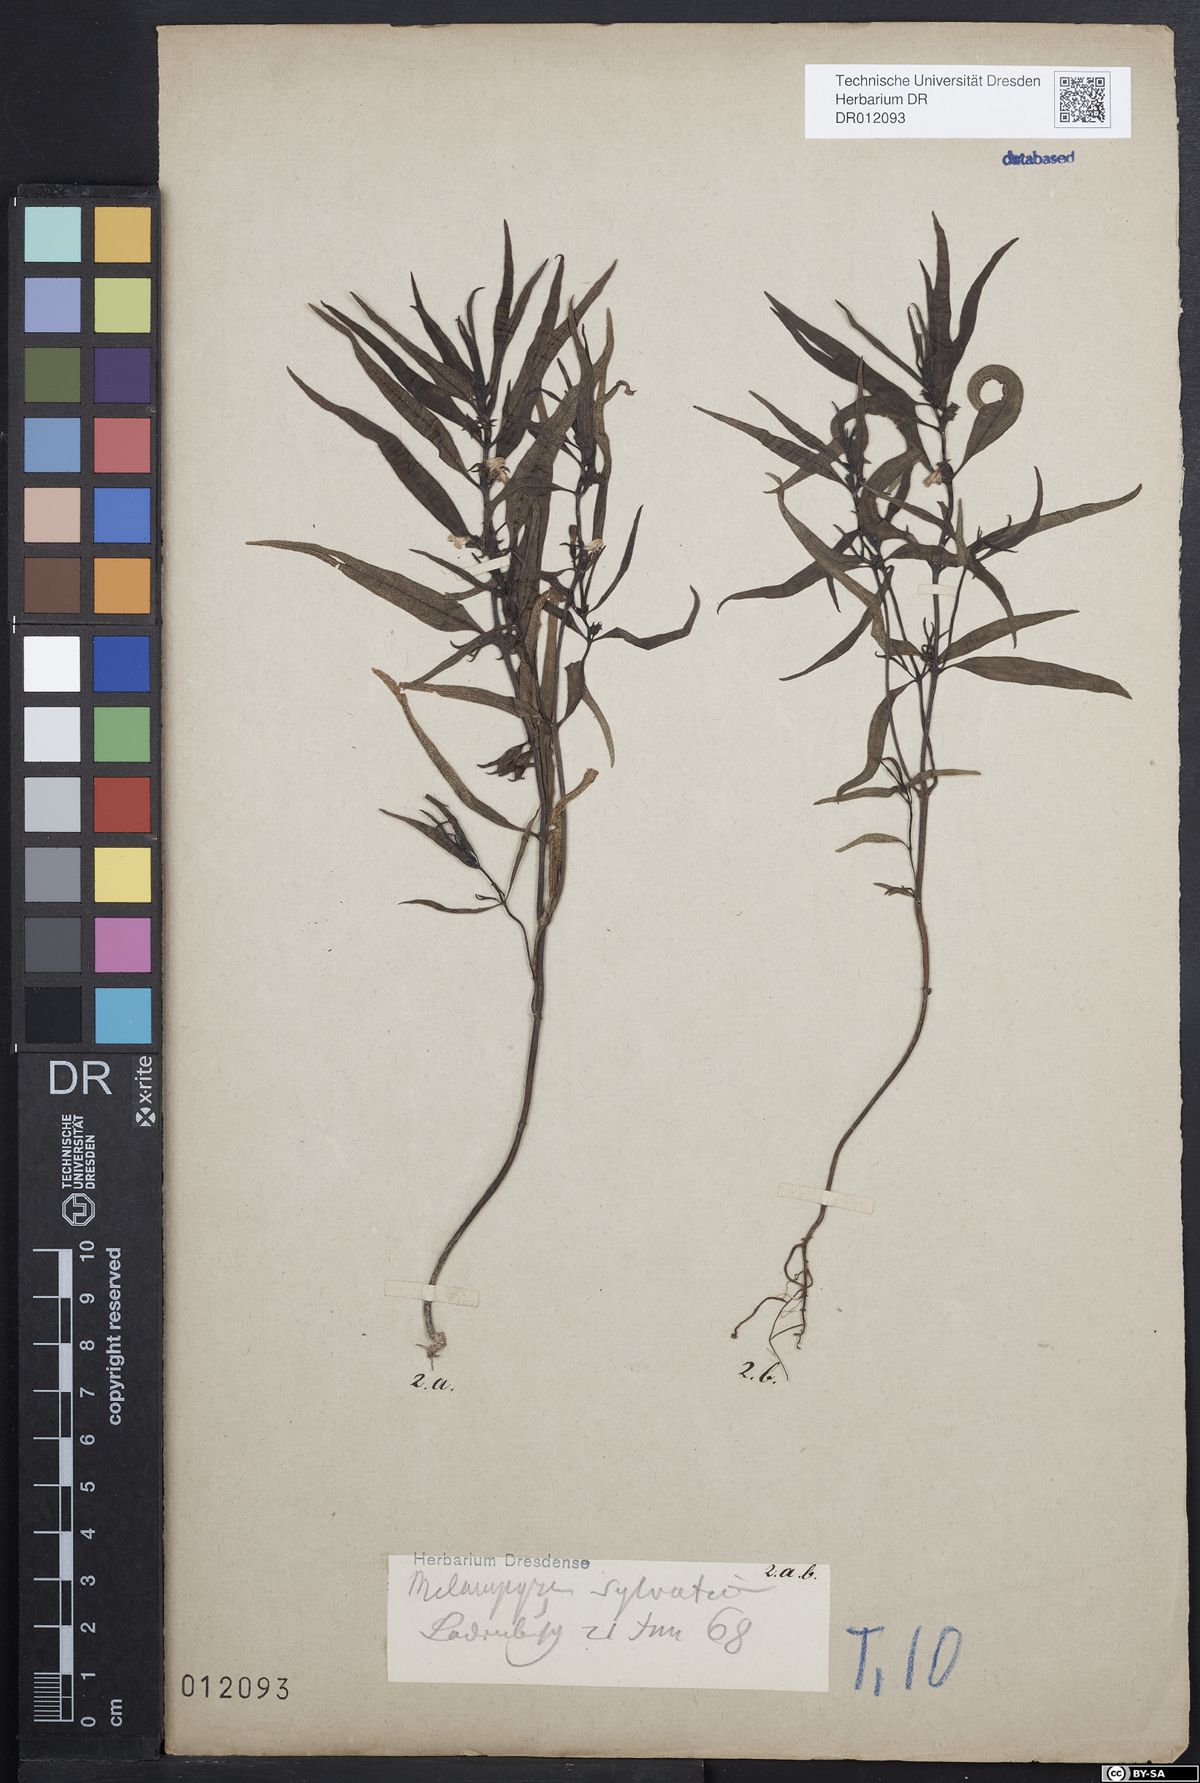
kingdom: Plantae
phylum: Tracheophyta
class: Magnoliopsida
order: Lamiales
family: Orobanchaceae
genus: Melampyrum
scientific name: Melampyrum sylvaticum
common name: Small cow-wheat
